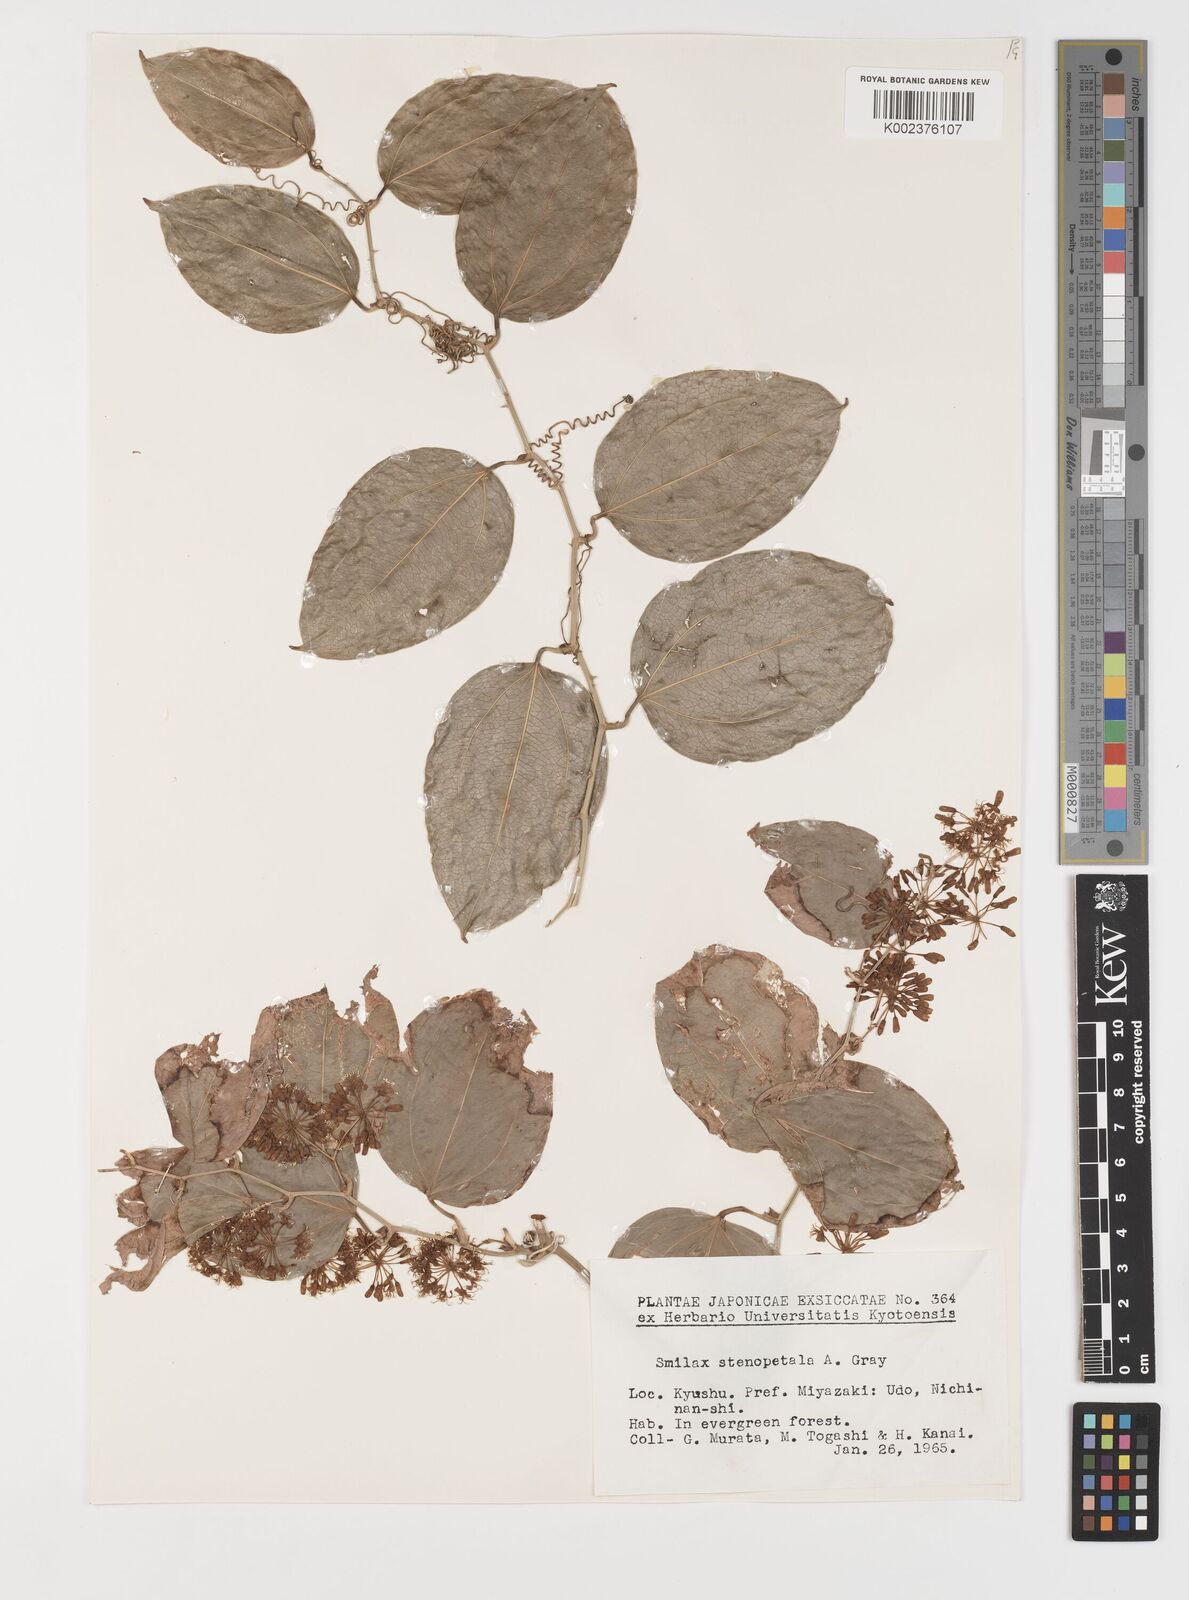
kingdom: Plantae
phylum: Tracheophyta
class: Liliopsida
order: Liliales
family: Smilacaceae
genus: Smilax
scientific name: Smilax bracteata
